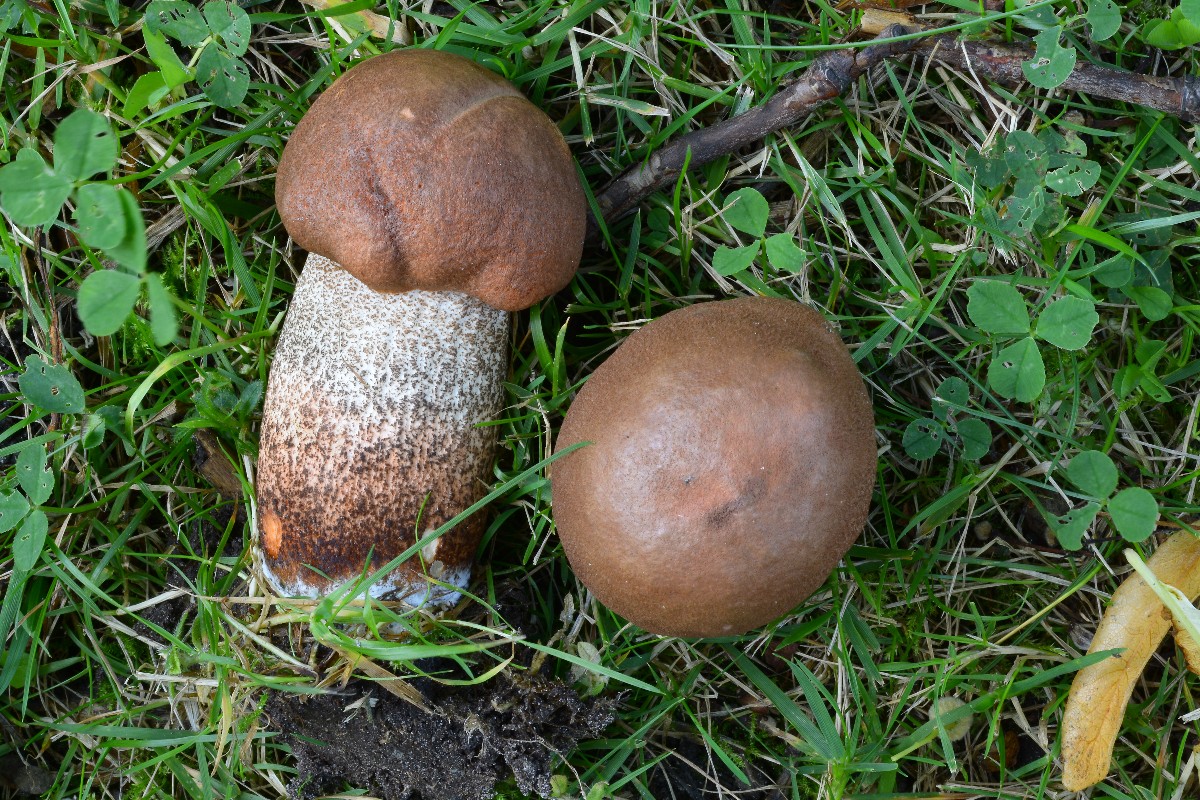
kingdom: Fungi
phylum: Basidiomycota
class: Agaricomycetes
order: Boletales
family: Boletaceae
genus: Leccinum
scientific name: Leccinum aurantiacum
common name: rustrød skælrørhat
